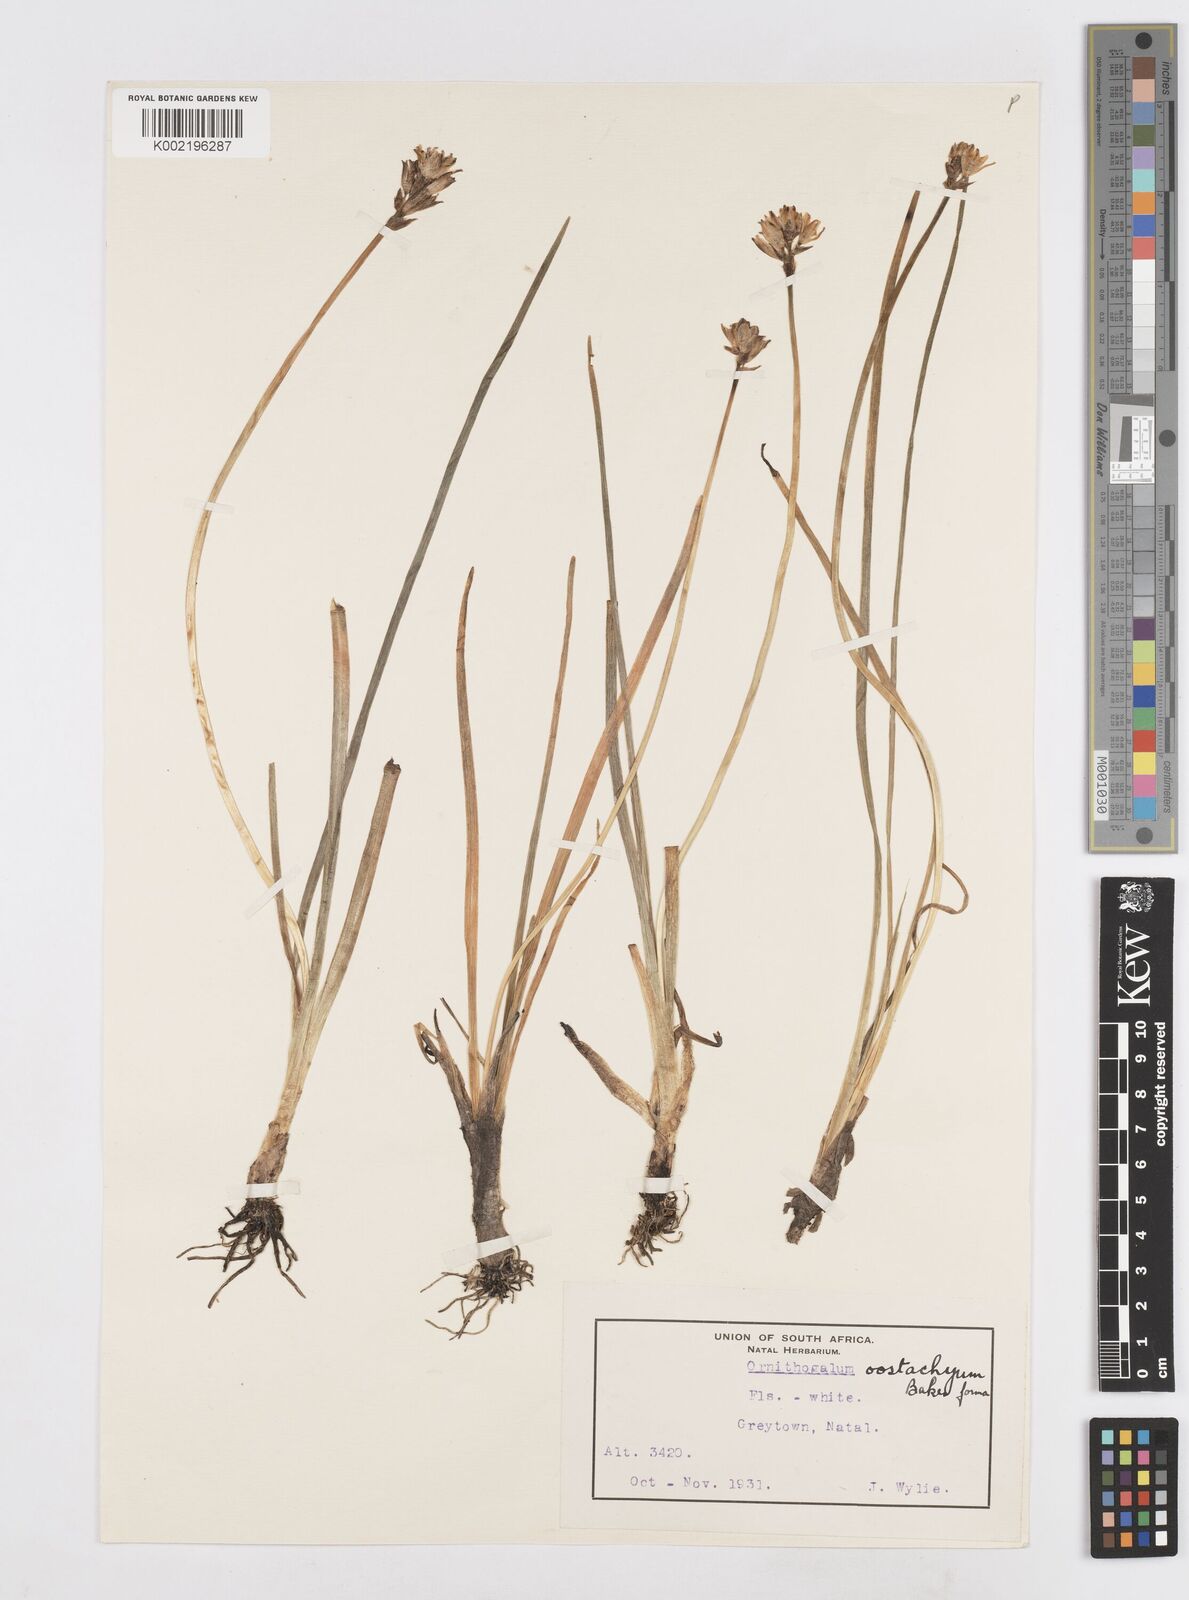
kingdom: Plantae
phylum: Tracheophyta
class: Liliopsida
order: Asparagales
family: Asparagaceae
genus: Ornithogalum
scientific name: Ornithogalum paludosum
